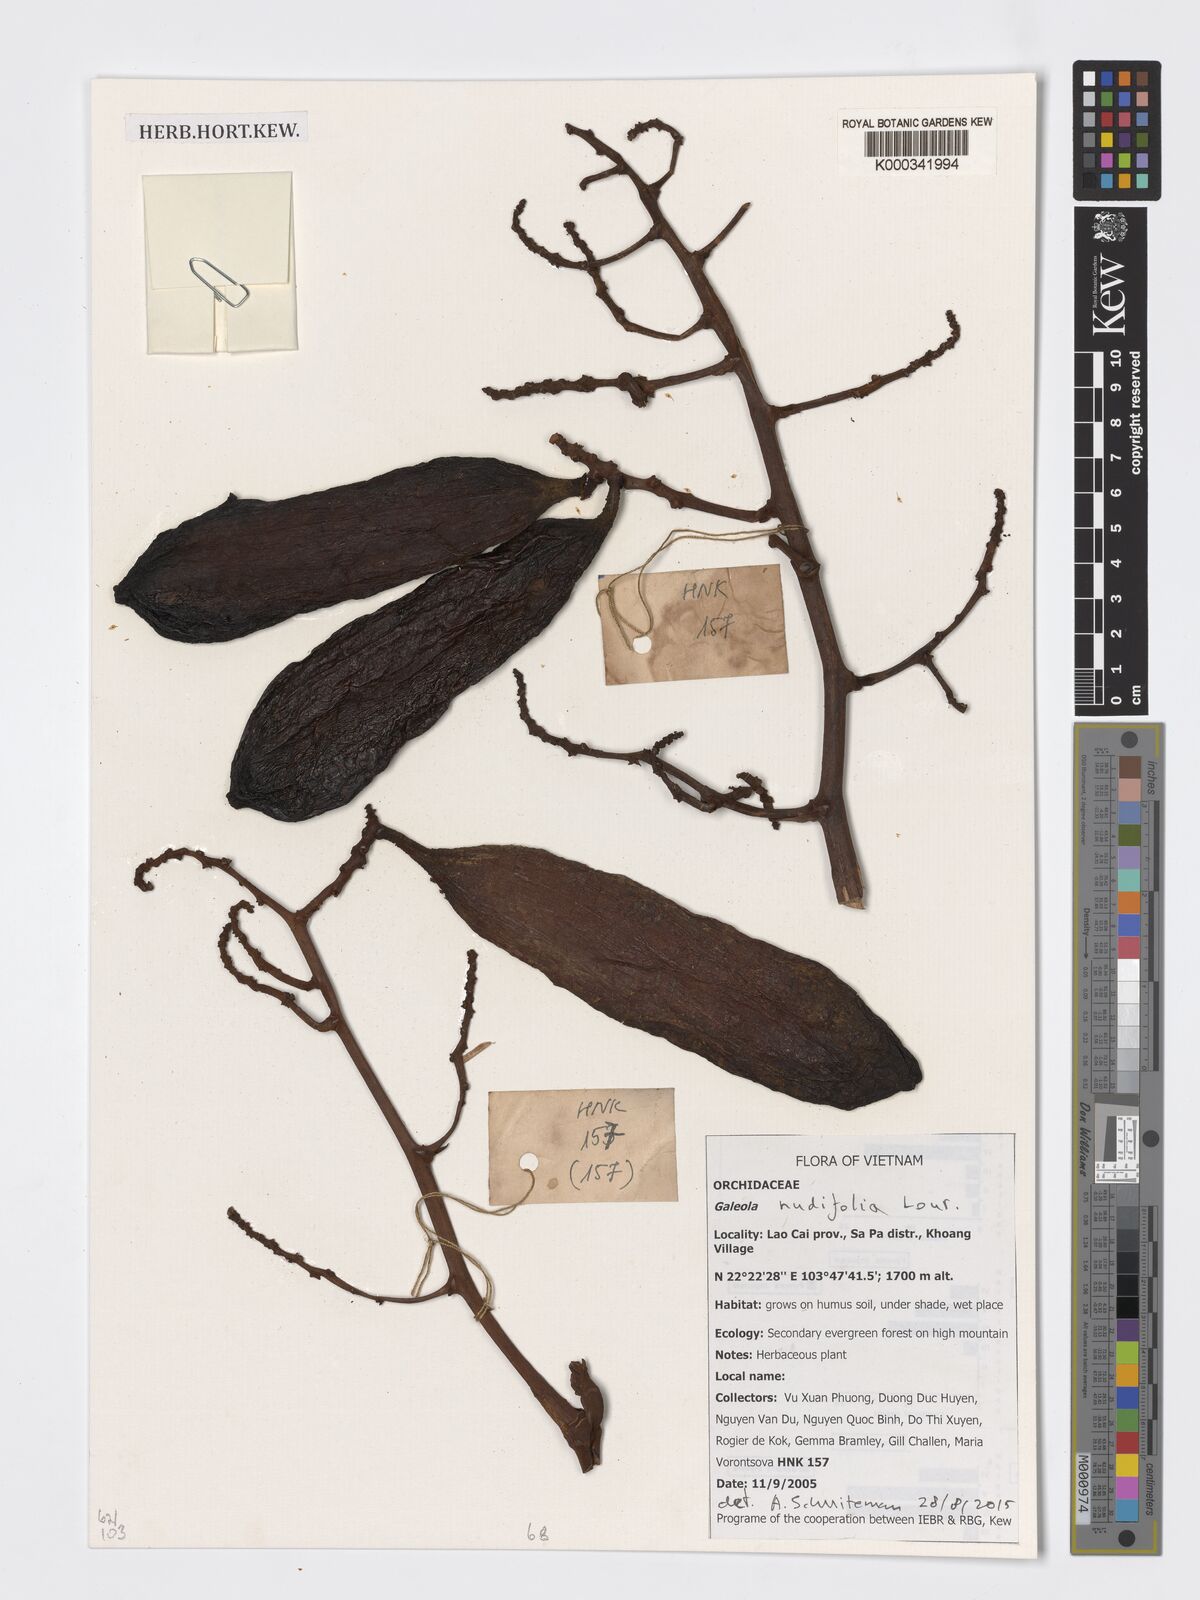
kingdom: Plantae
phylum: Tracheophyta
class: Liliopsida
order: Asparagales
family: Orchidaceae
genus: Galeola
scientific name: Galeola nudifolia
